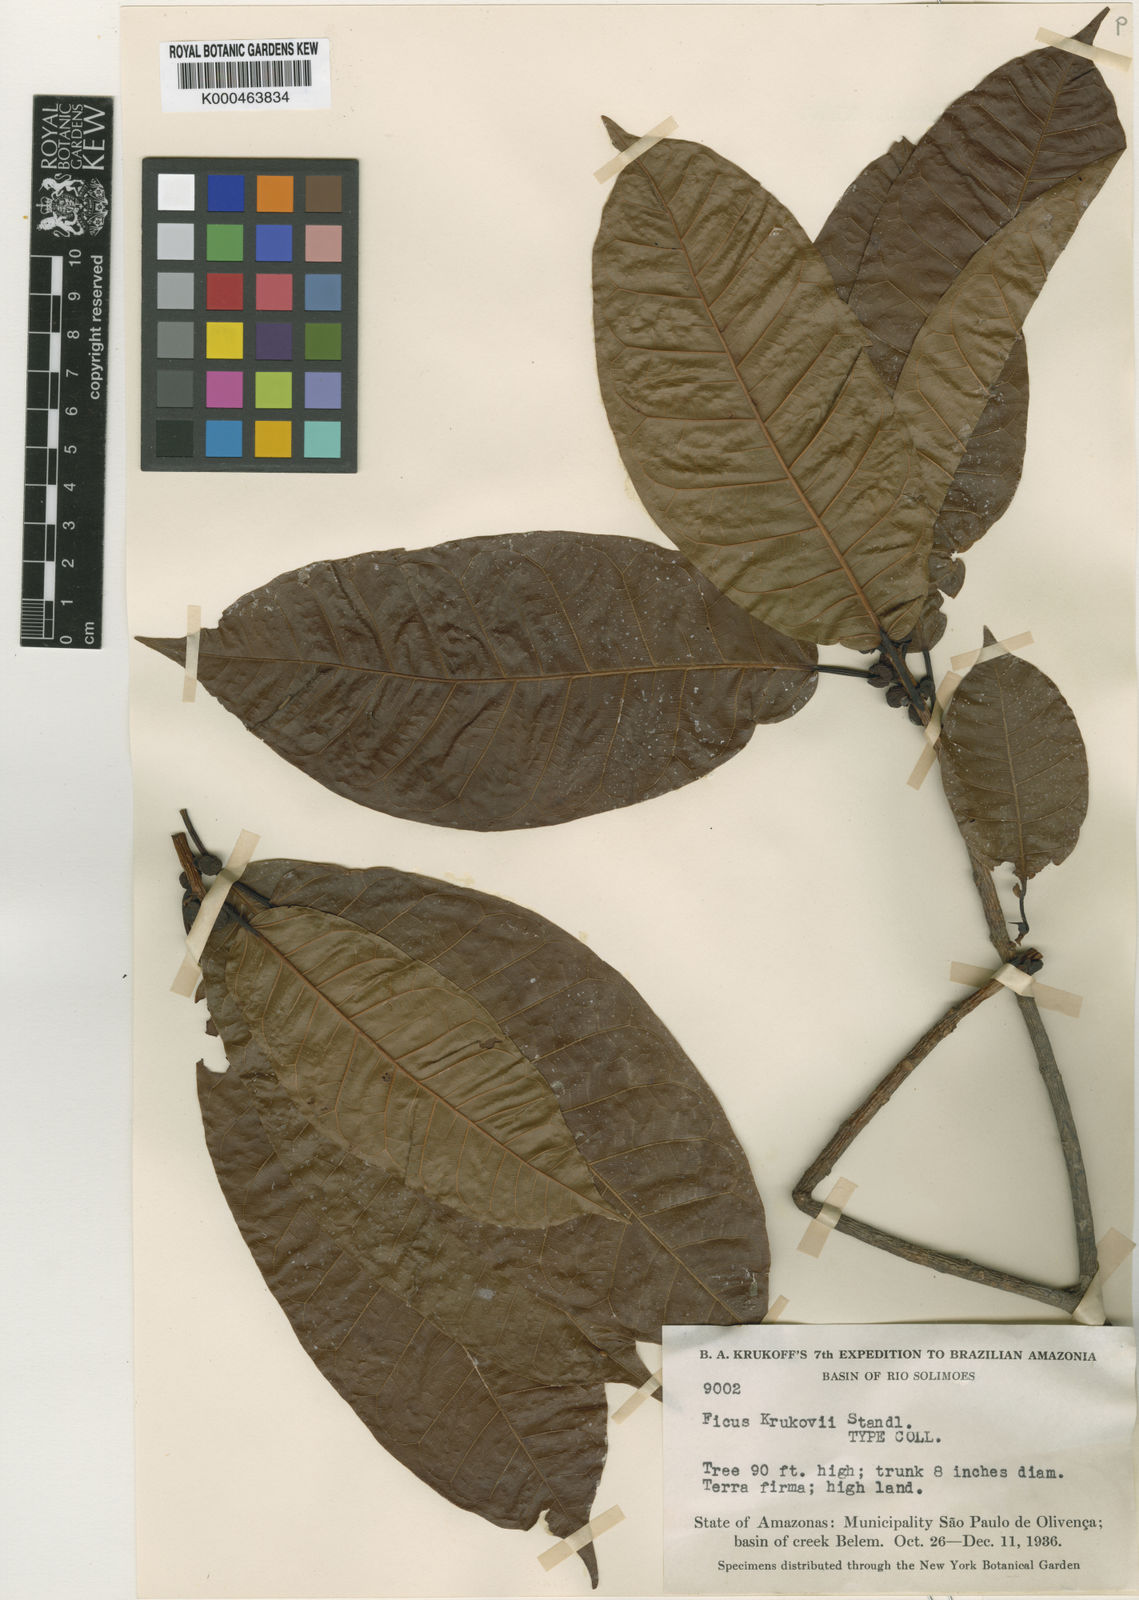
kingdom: Plantae
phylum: Tracheophyta
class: Magnoliopsida
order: Rosales
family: Moraceae
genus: Ficus
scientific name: Ficus krukovii
